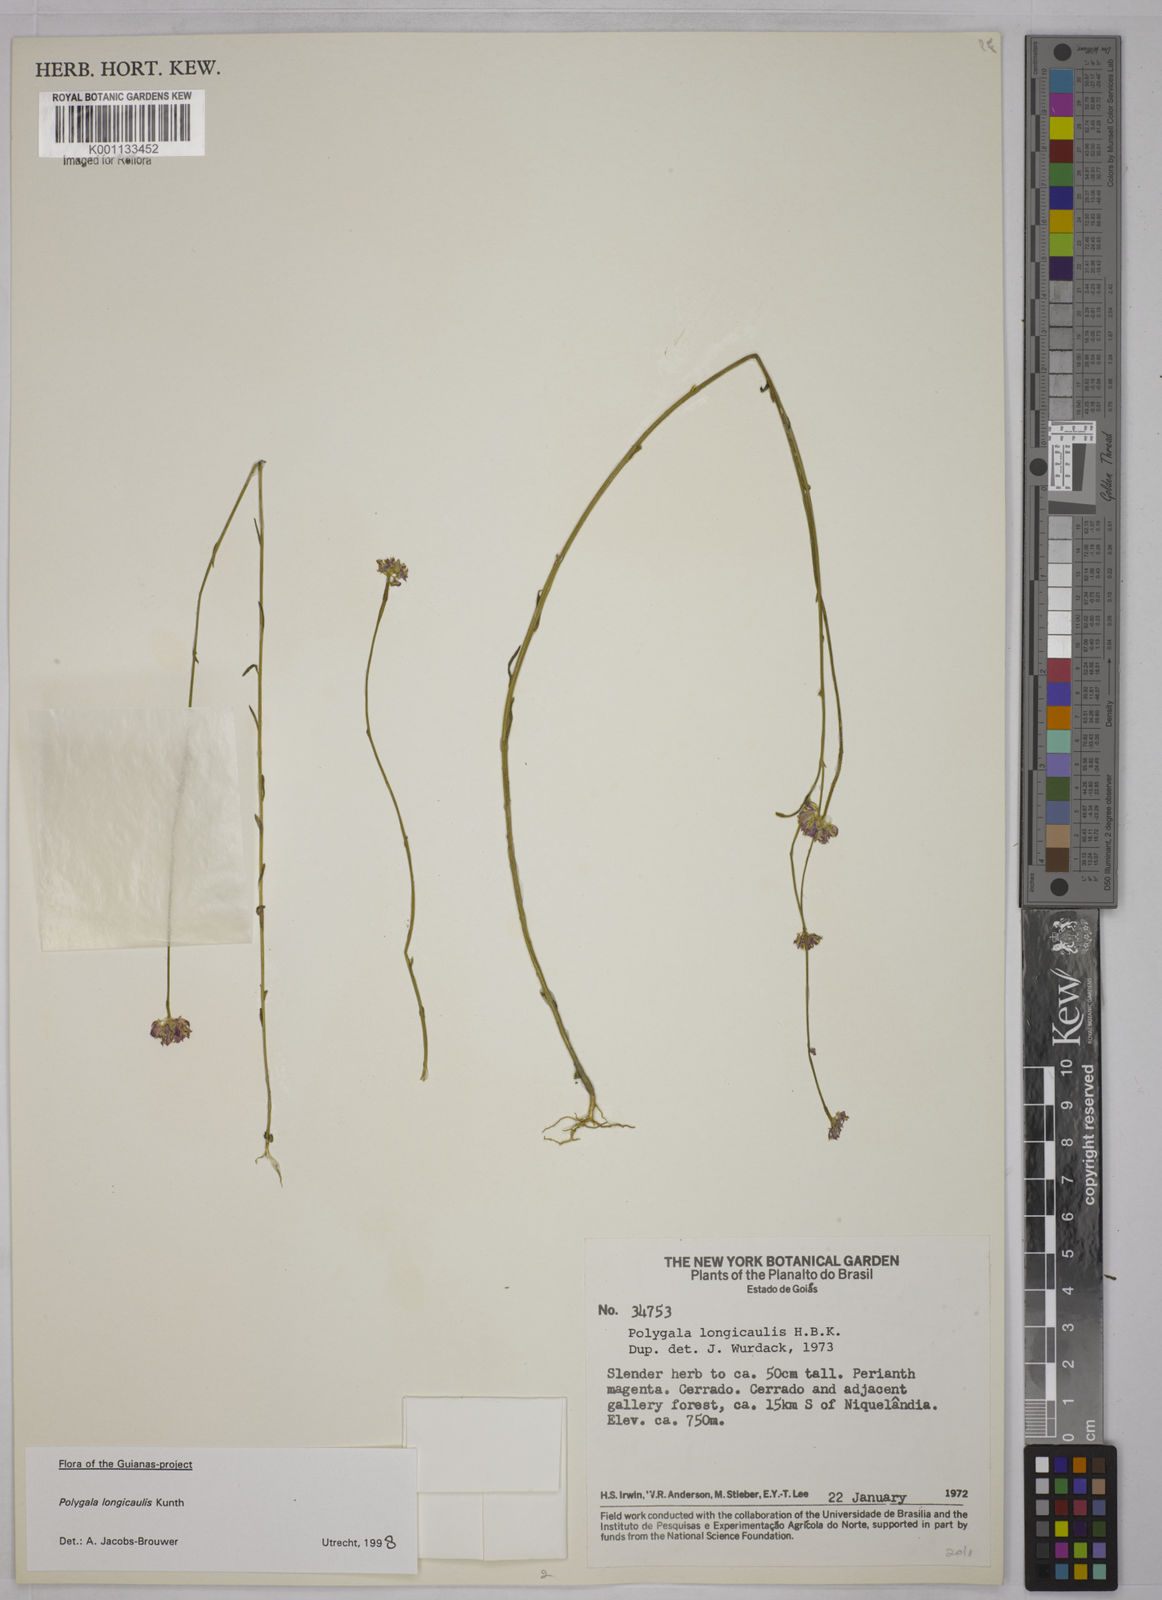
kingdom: Plantae
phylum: Tracheophyta
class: Magnoliopsida
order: Fabales
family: Polygalaceae
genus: Polygala
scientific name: Polygala longicaulis
